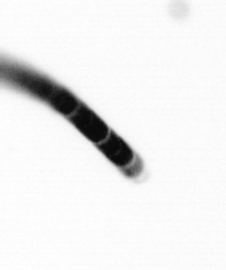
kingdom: Chromista
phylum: Ochrophyta
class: Bacillariophyceae
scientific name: Bacillariophyceae
